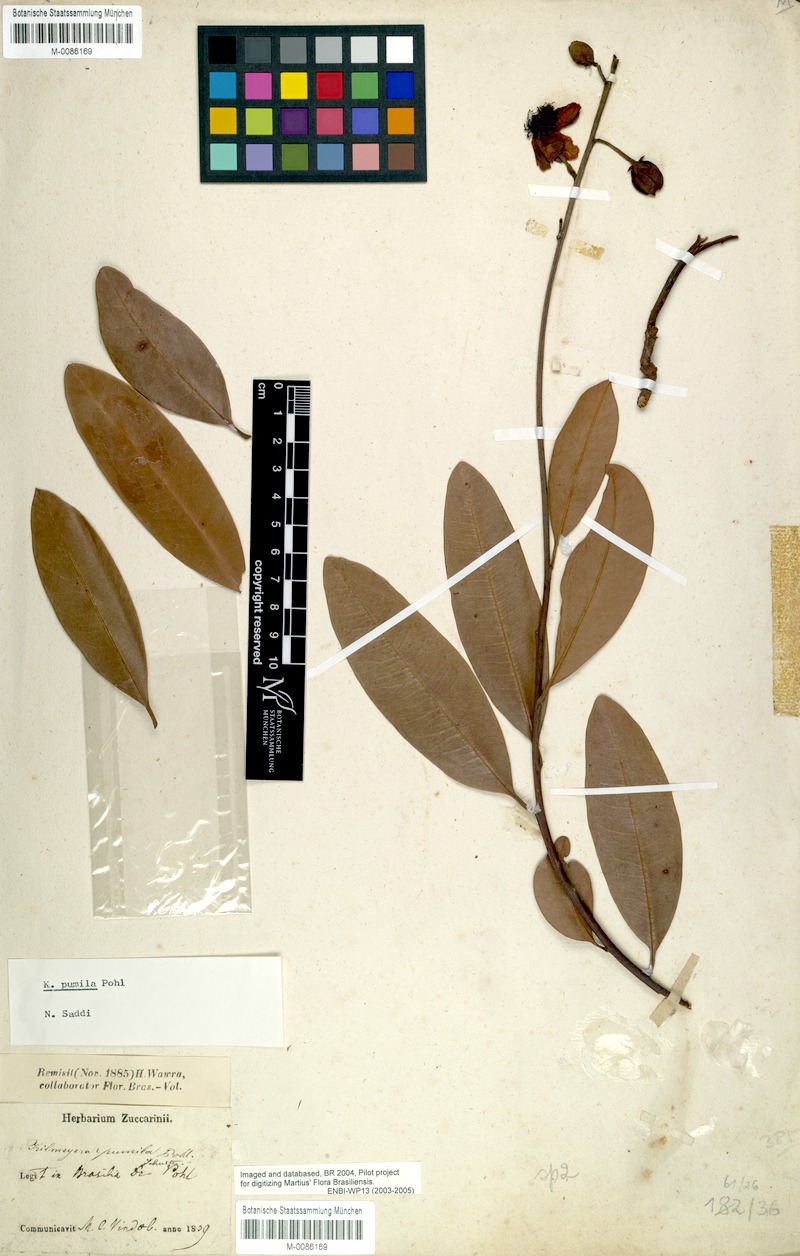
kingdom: Plantae
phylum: Tracheophyta
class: Magnoliopsida
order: Malpighiales
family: Calophyllaceae
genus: Kielmeyera
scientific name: Kielmeyera pumila
